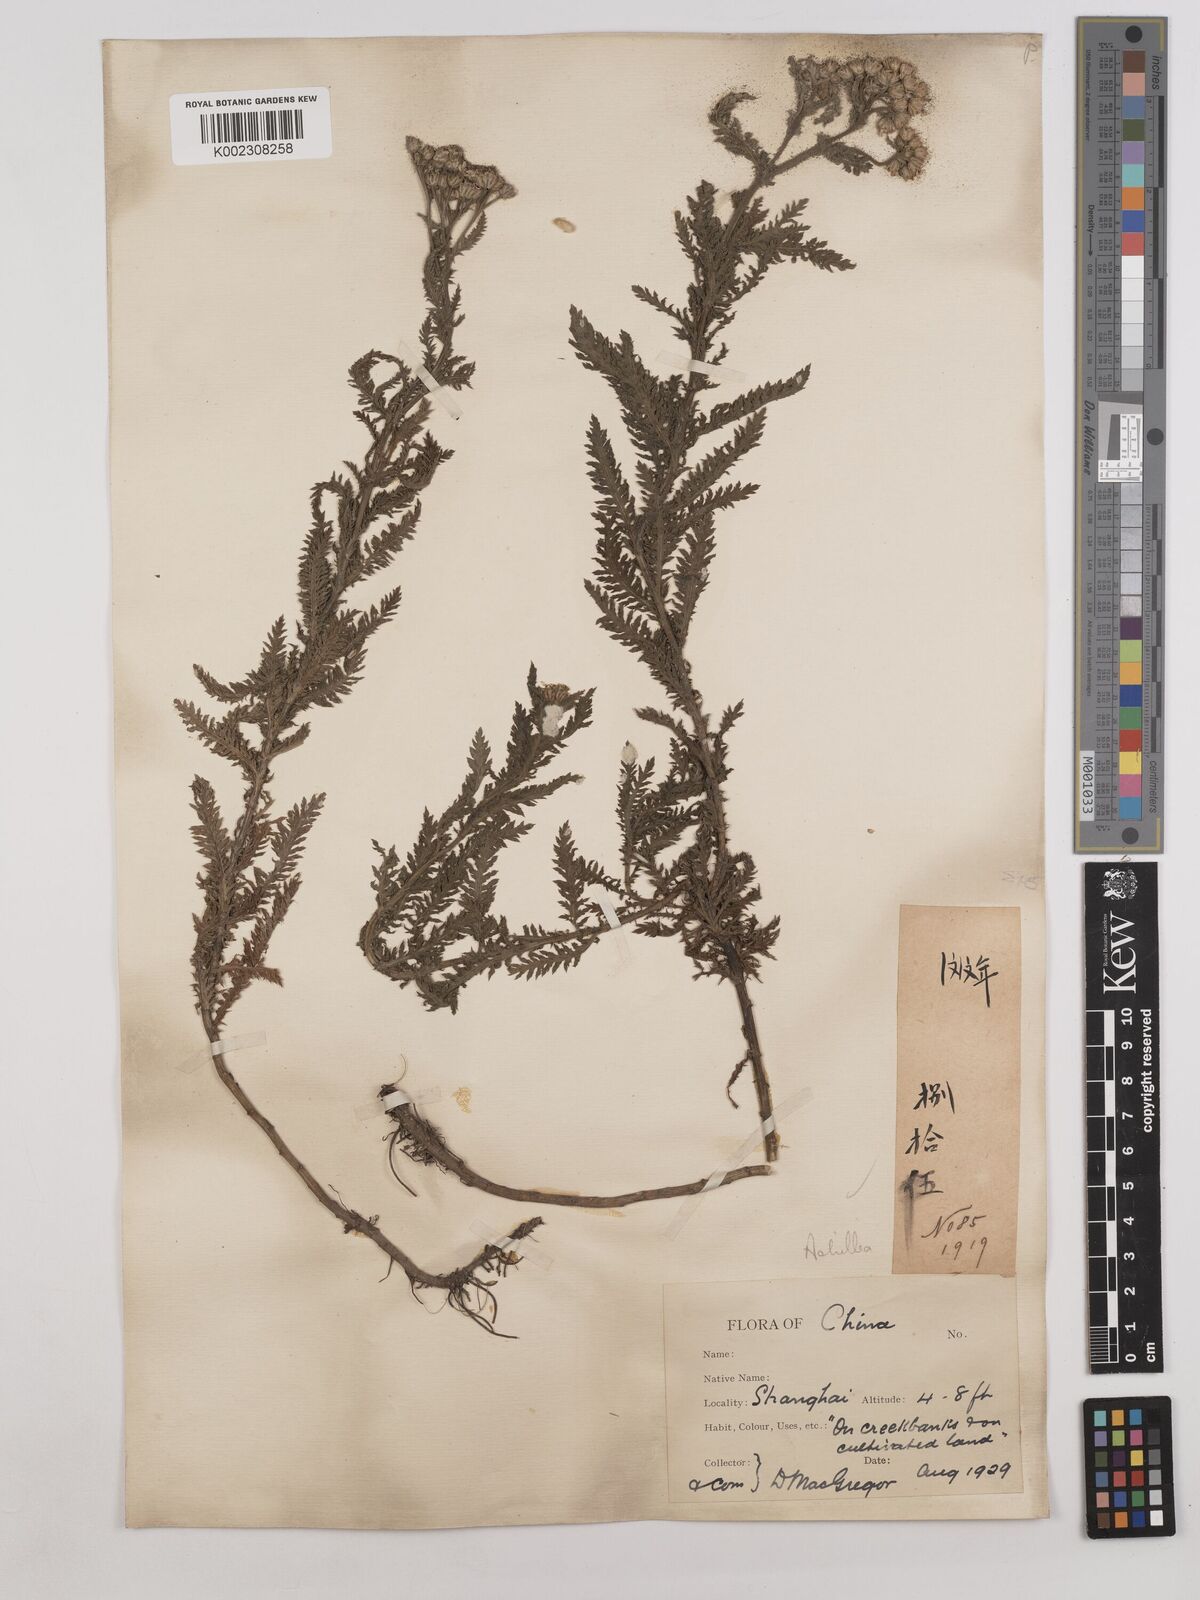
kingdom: Plantae
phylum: Tracheophyta
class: Magnoliopsida
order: Asterales
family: Asteraceae
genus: Achillea
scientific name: Achillea
